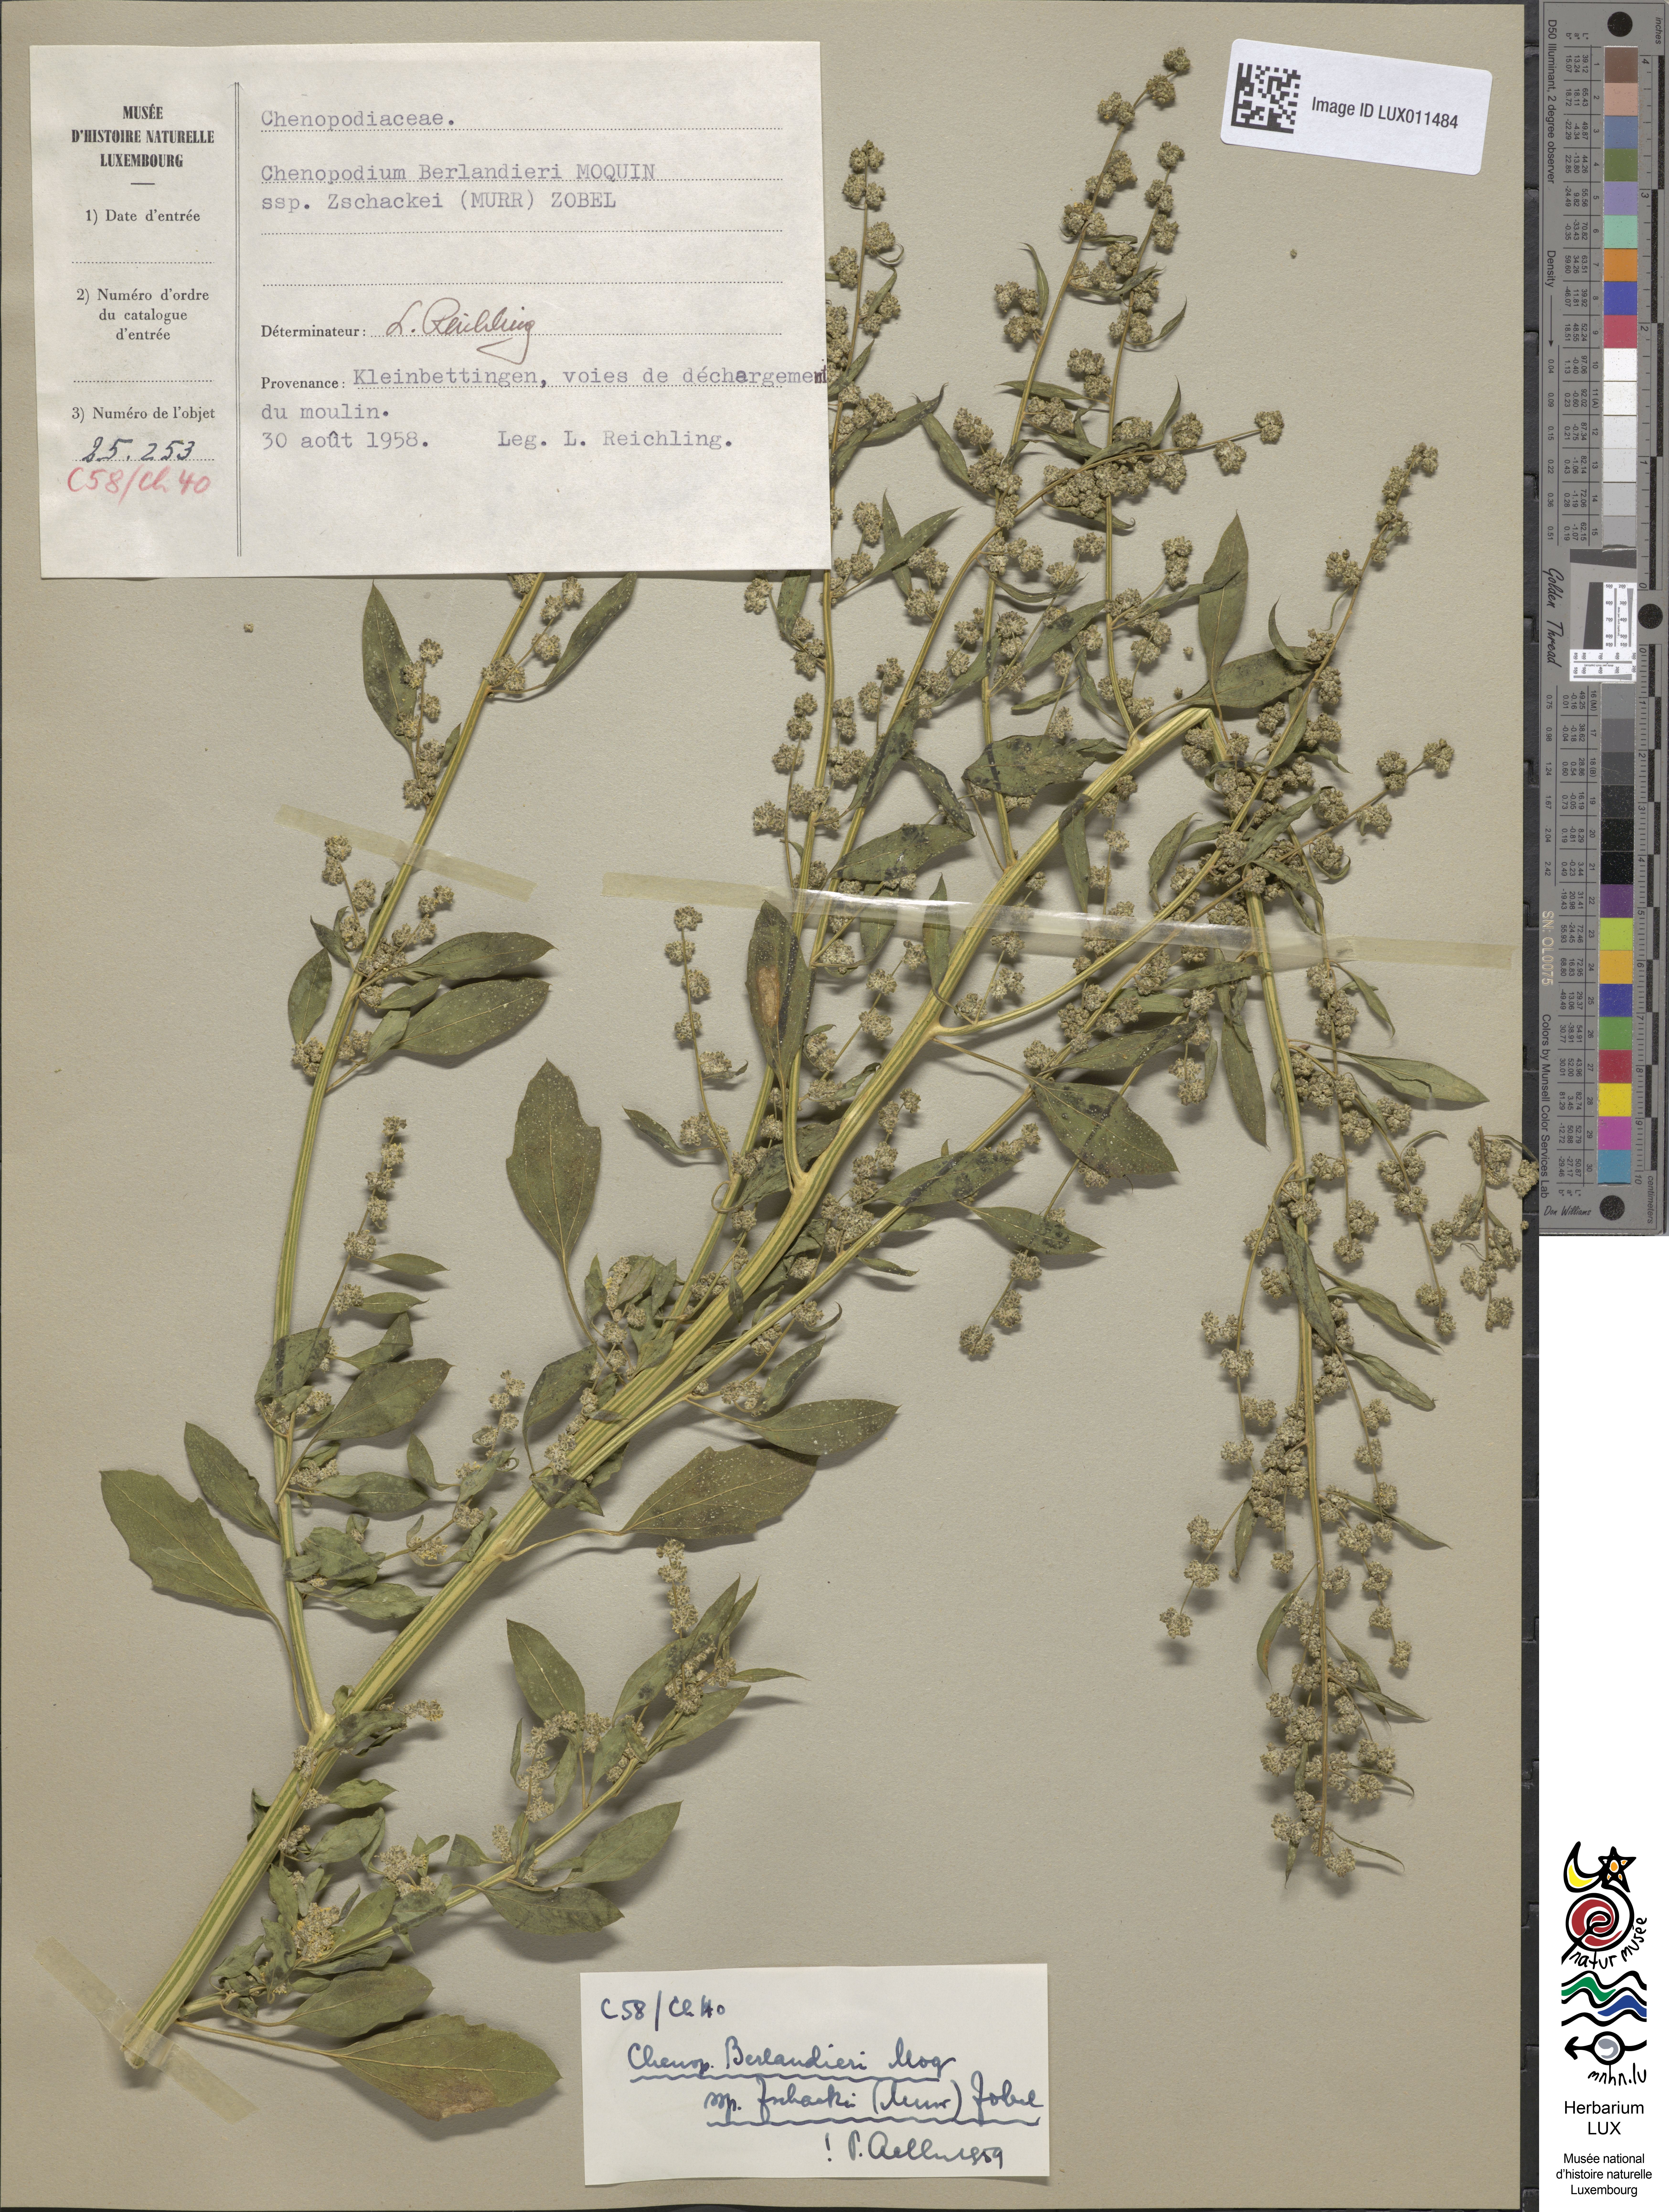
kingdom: Plantae
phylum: Tracheophyta
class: Magnoliopsida
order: Caryophyllales
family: Amaranthaceae
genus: Chenopodium
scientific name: Chenopodium berlandieri
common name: Pit-seed goosefoot
